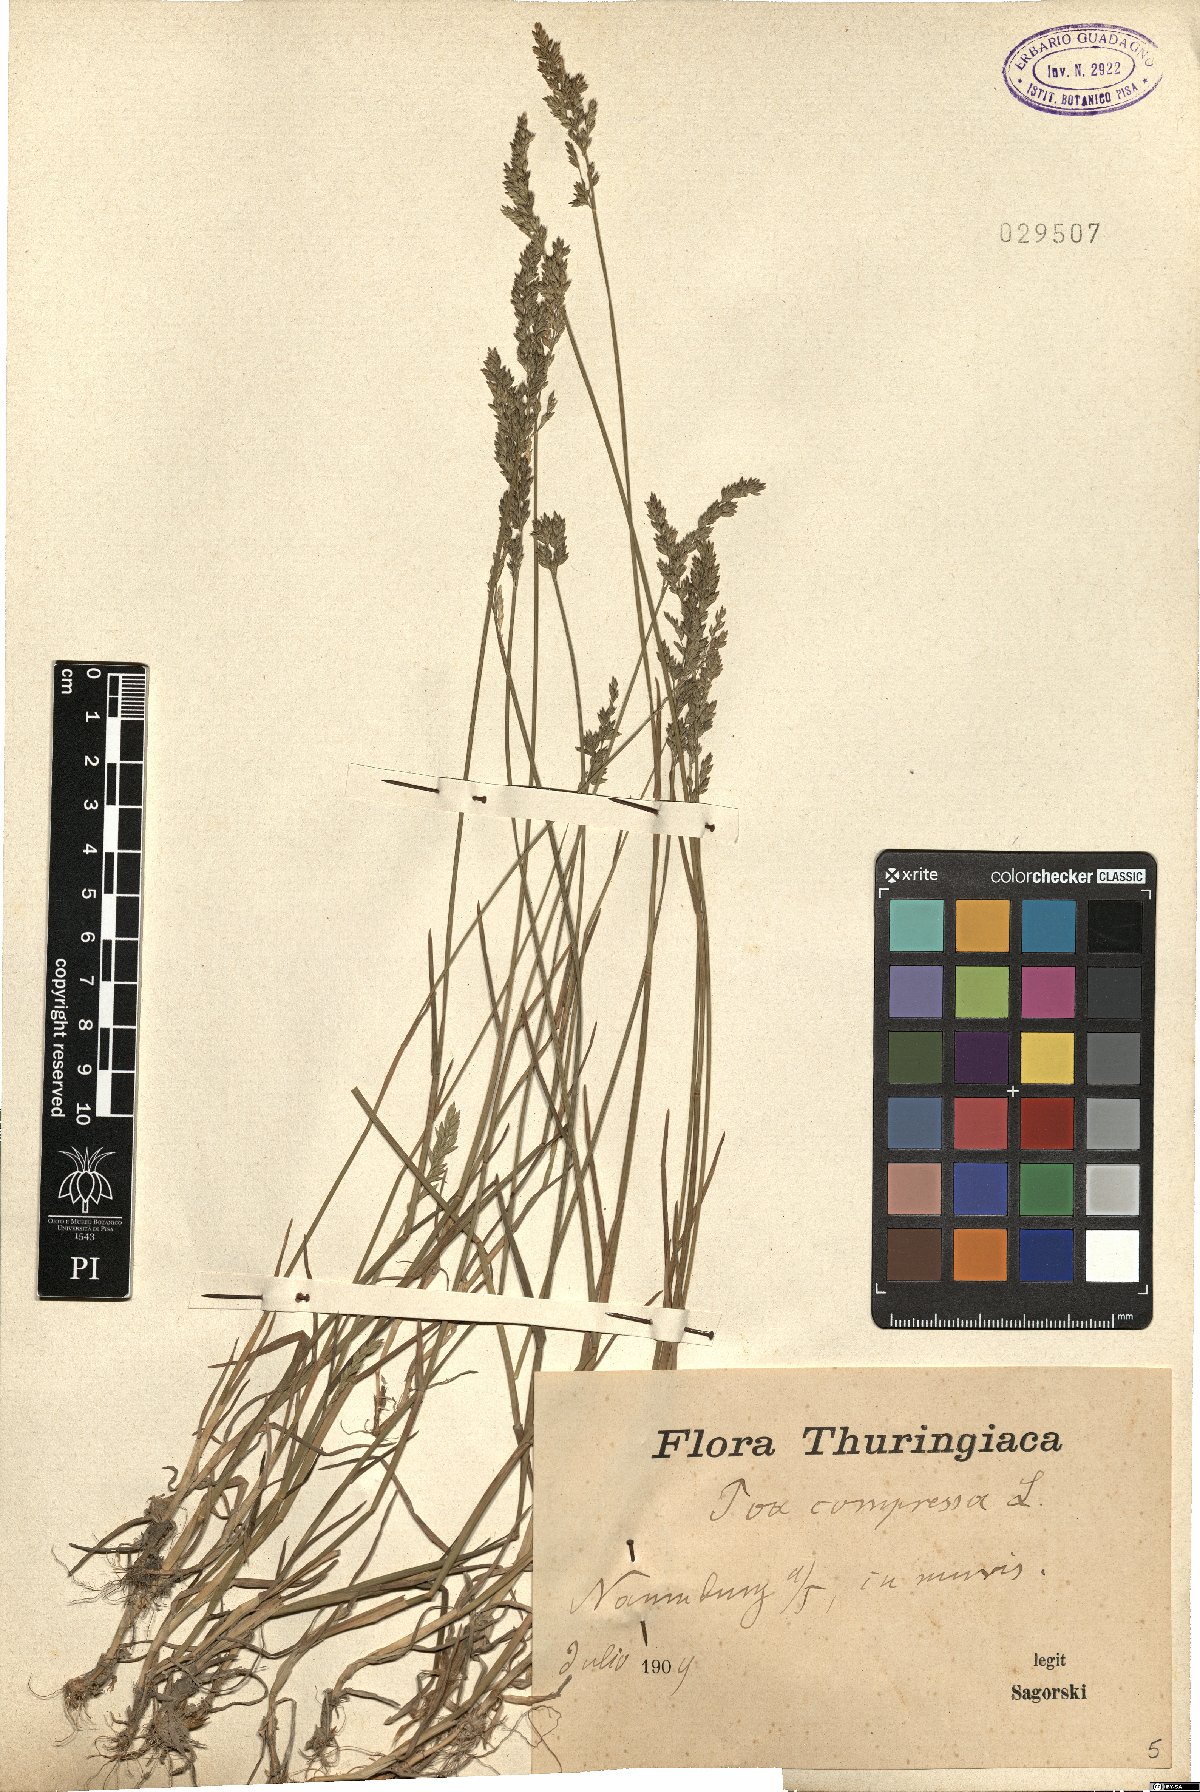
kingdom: Plantae
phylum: Tracheophyta
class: Liliopsida
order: Poales
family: Poaceae
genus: Poa
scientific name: Poa compressa
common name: Canada bluegrass
